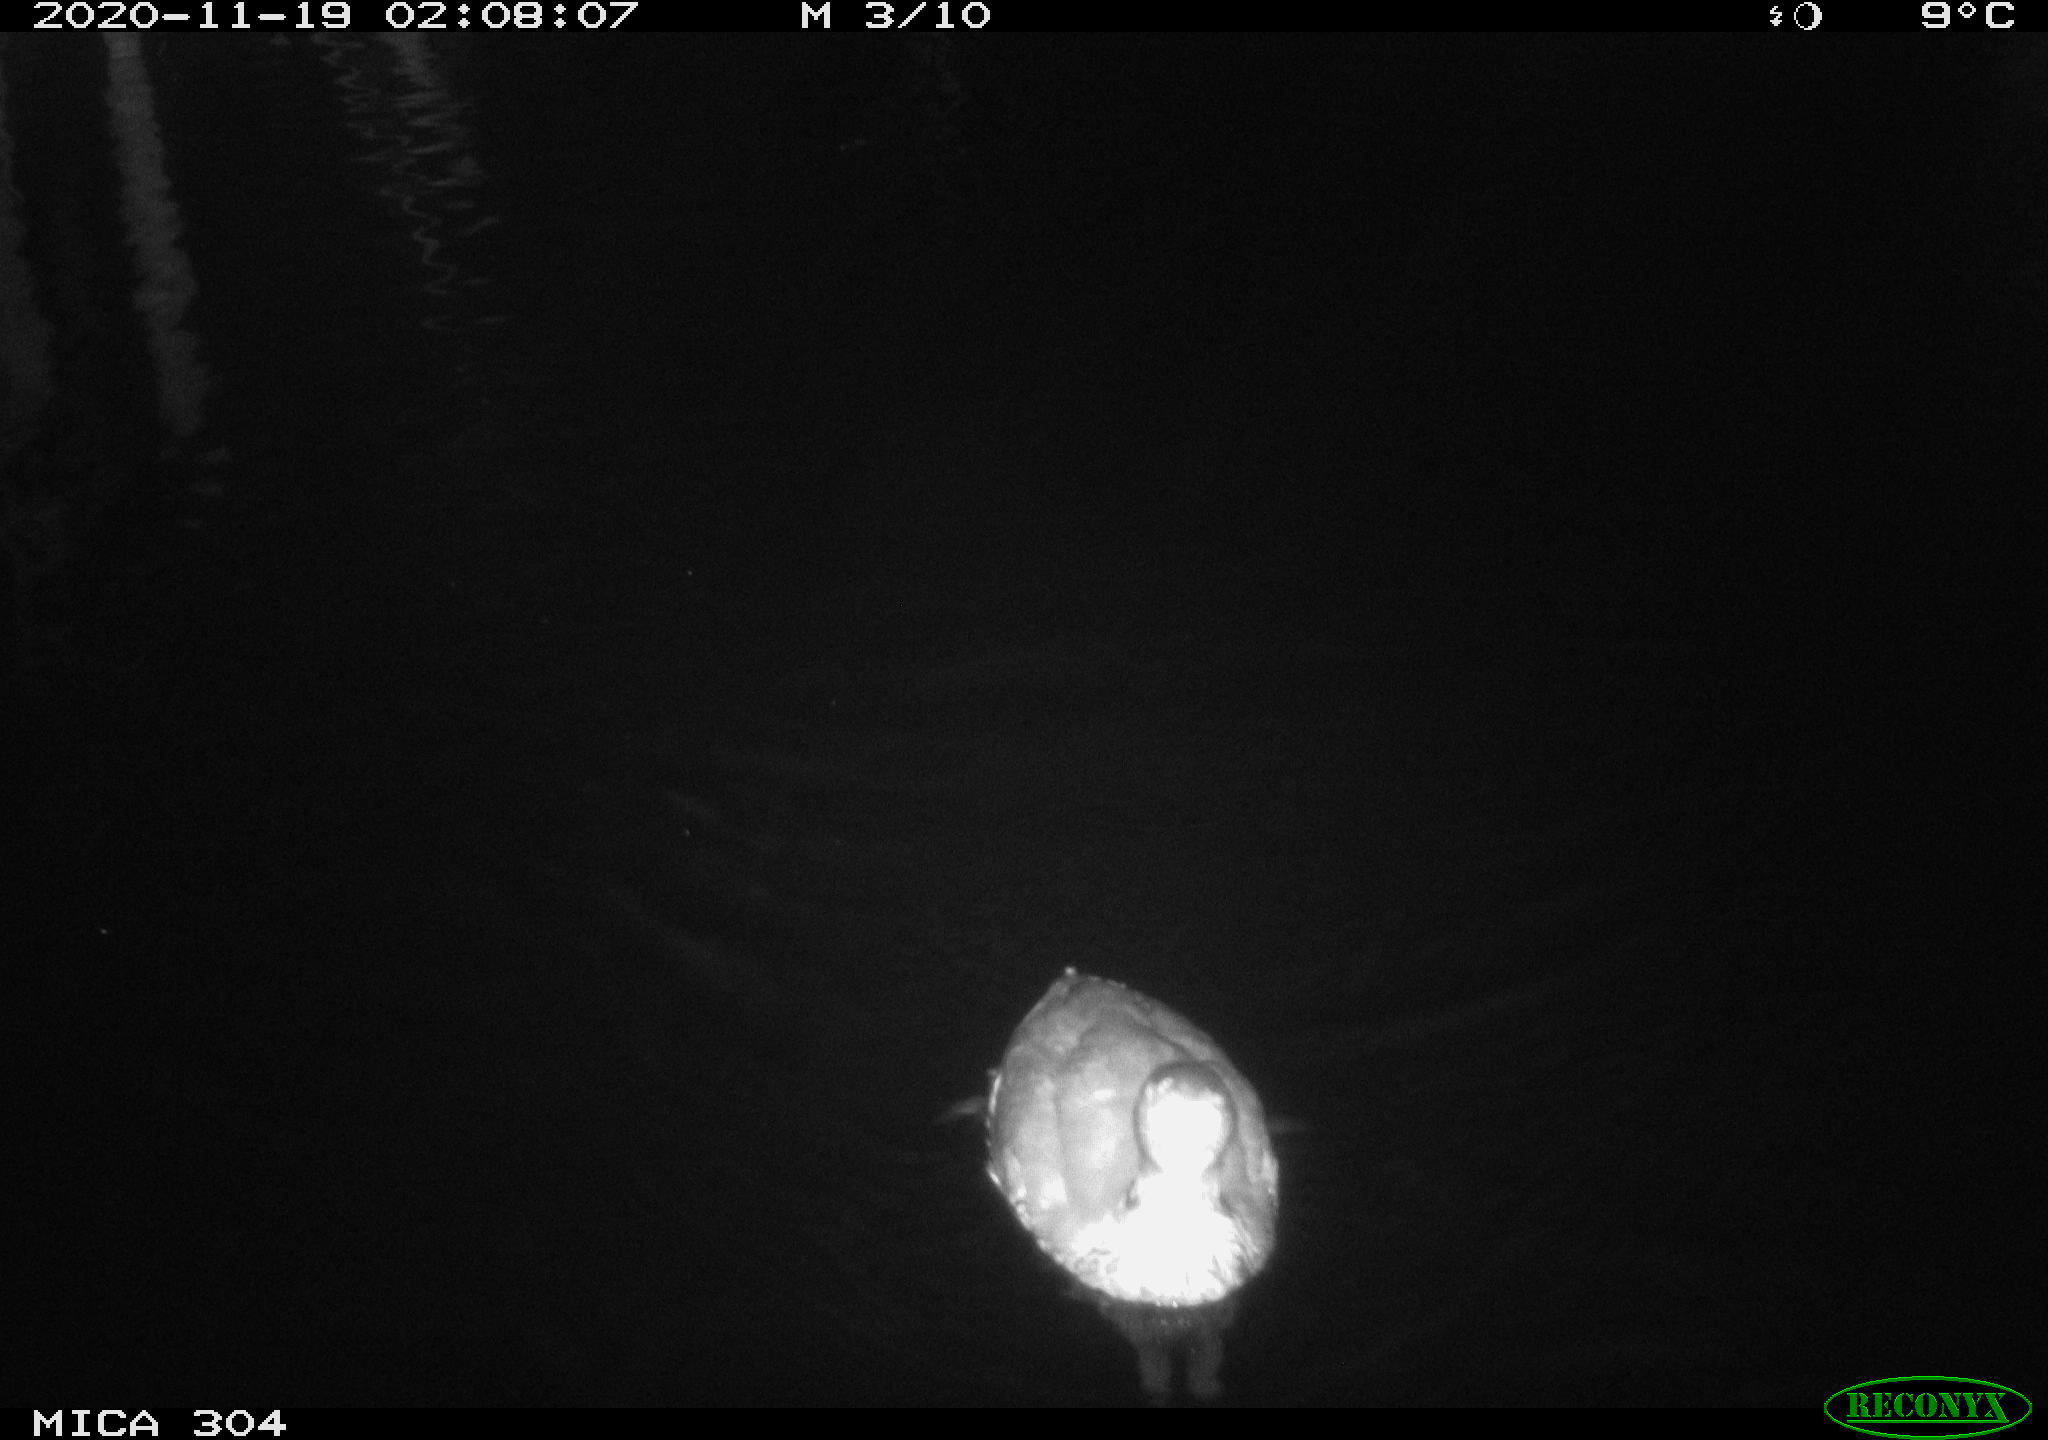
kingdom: Animalia
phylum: Chordata
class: Aves
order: Gruiformes
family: Rallidae
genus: Fulica
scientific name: Fulica atra
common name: Eurasian coot
